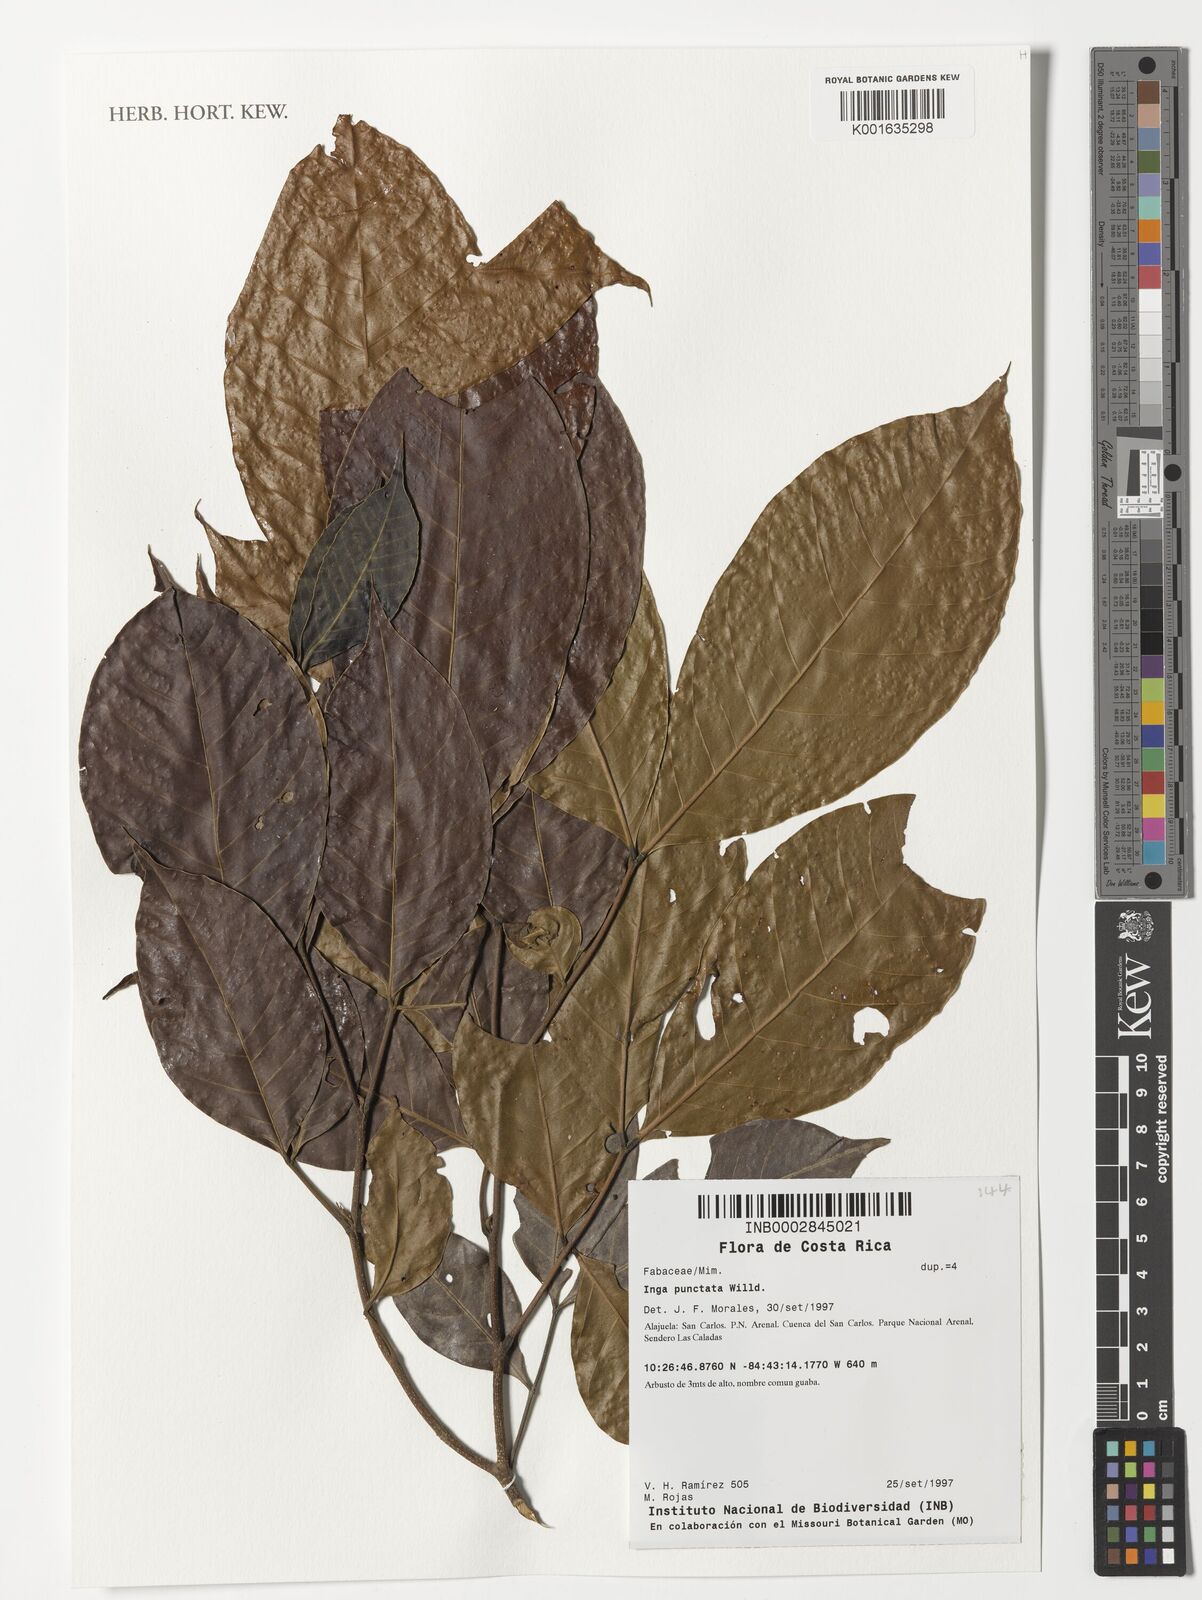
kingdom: Plantae
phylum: Tracheophyta
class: Magnoliopsida
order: Fabales
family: Fabaceae
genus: Inga
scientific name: Inga punctata
